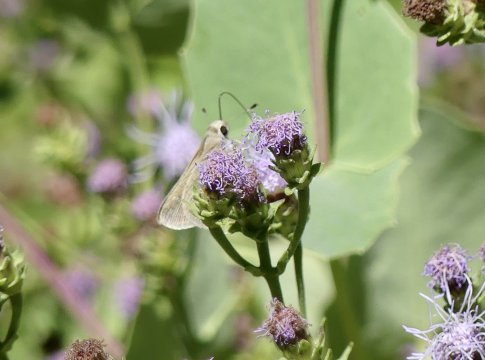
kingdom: Animalia
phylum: Arthropoda
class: Insecta
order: Lepidoptera
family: Hesperiidae
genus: Lerodea
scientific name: Lerodea arabus
